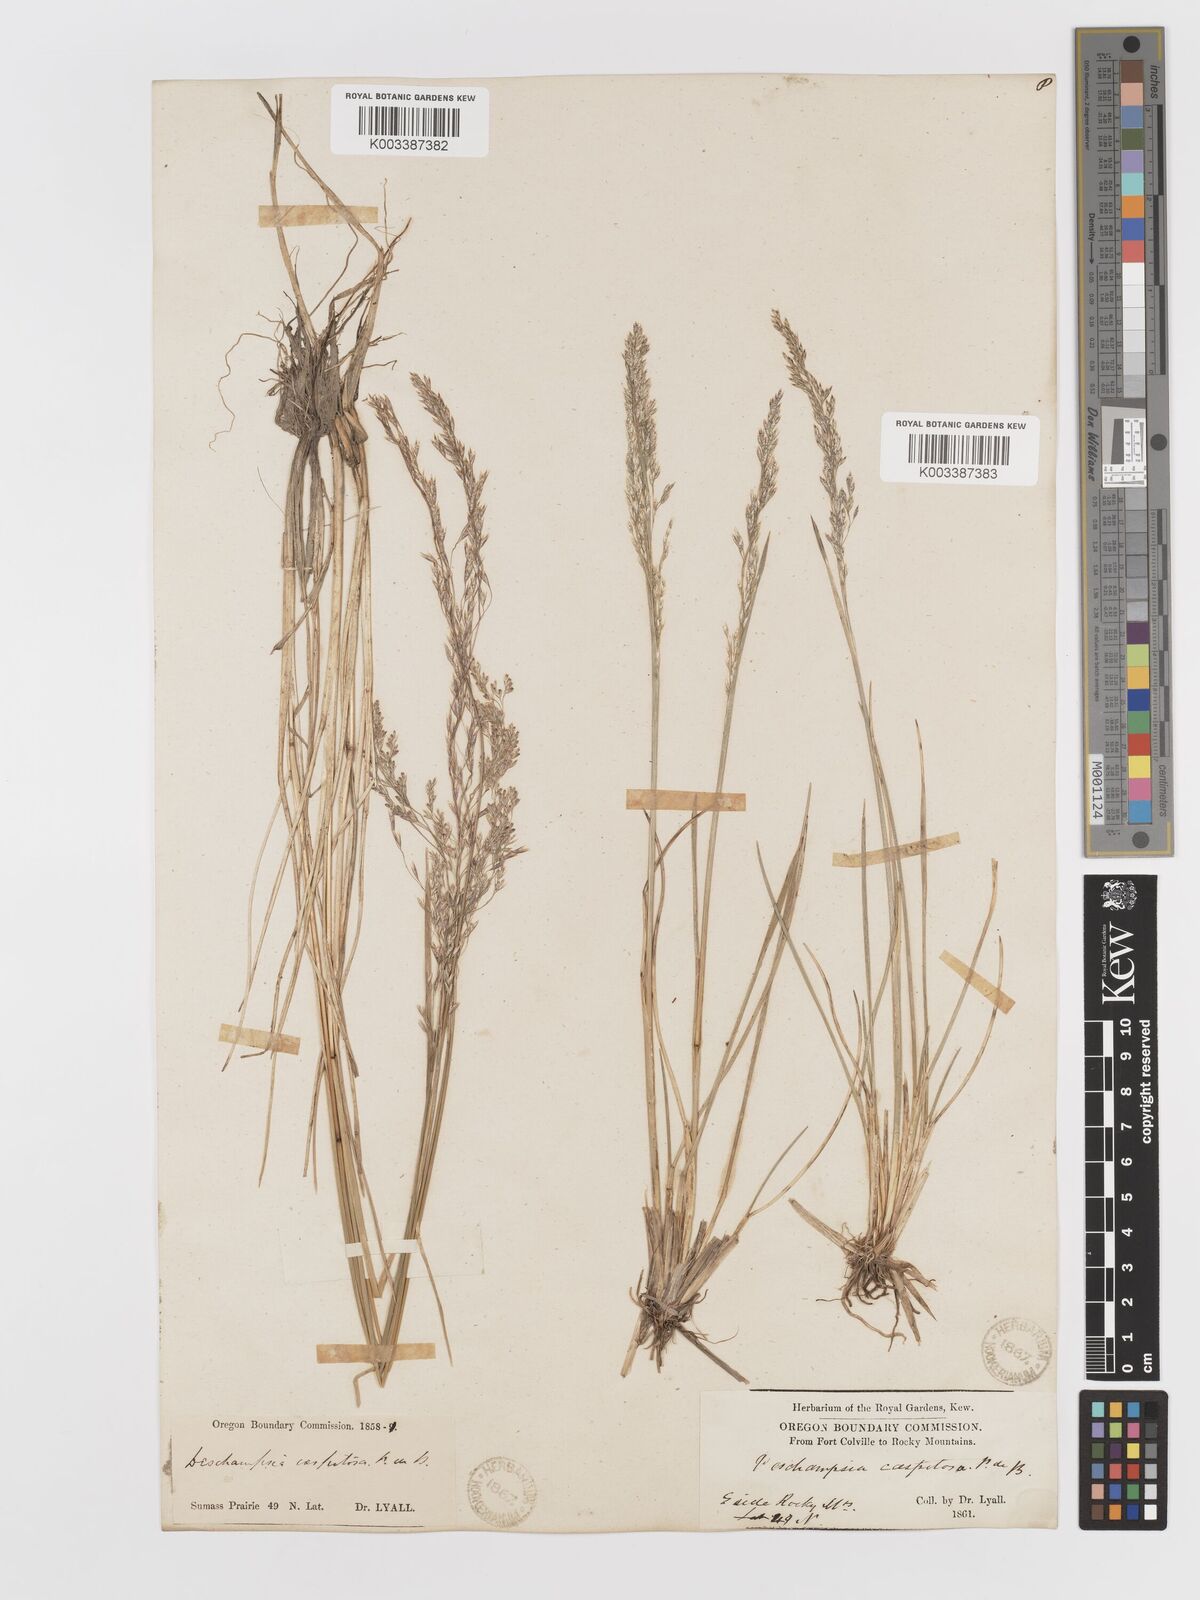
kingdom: Plantae
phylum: Tracheophyta
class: Liliopsida
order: Poales
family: Poaceae
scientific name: Poaceae
